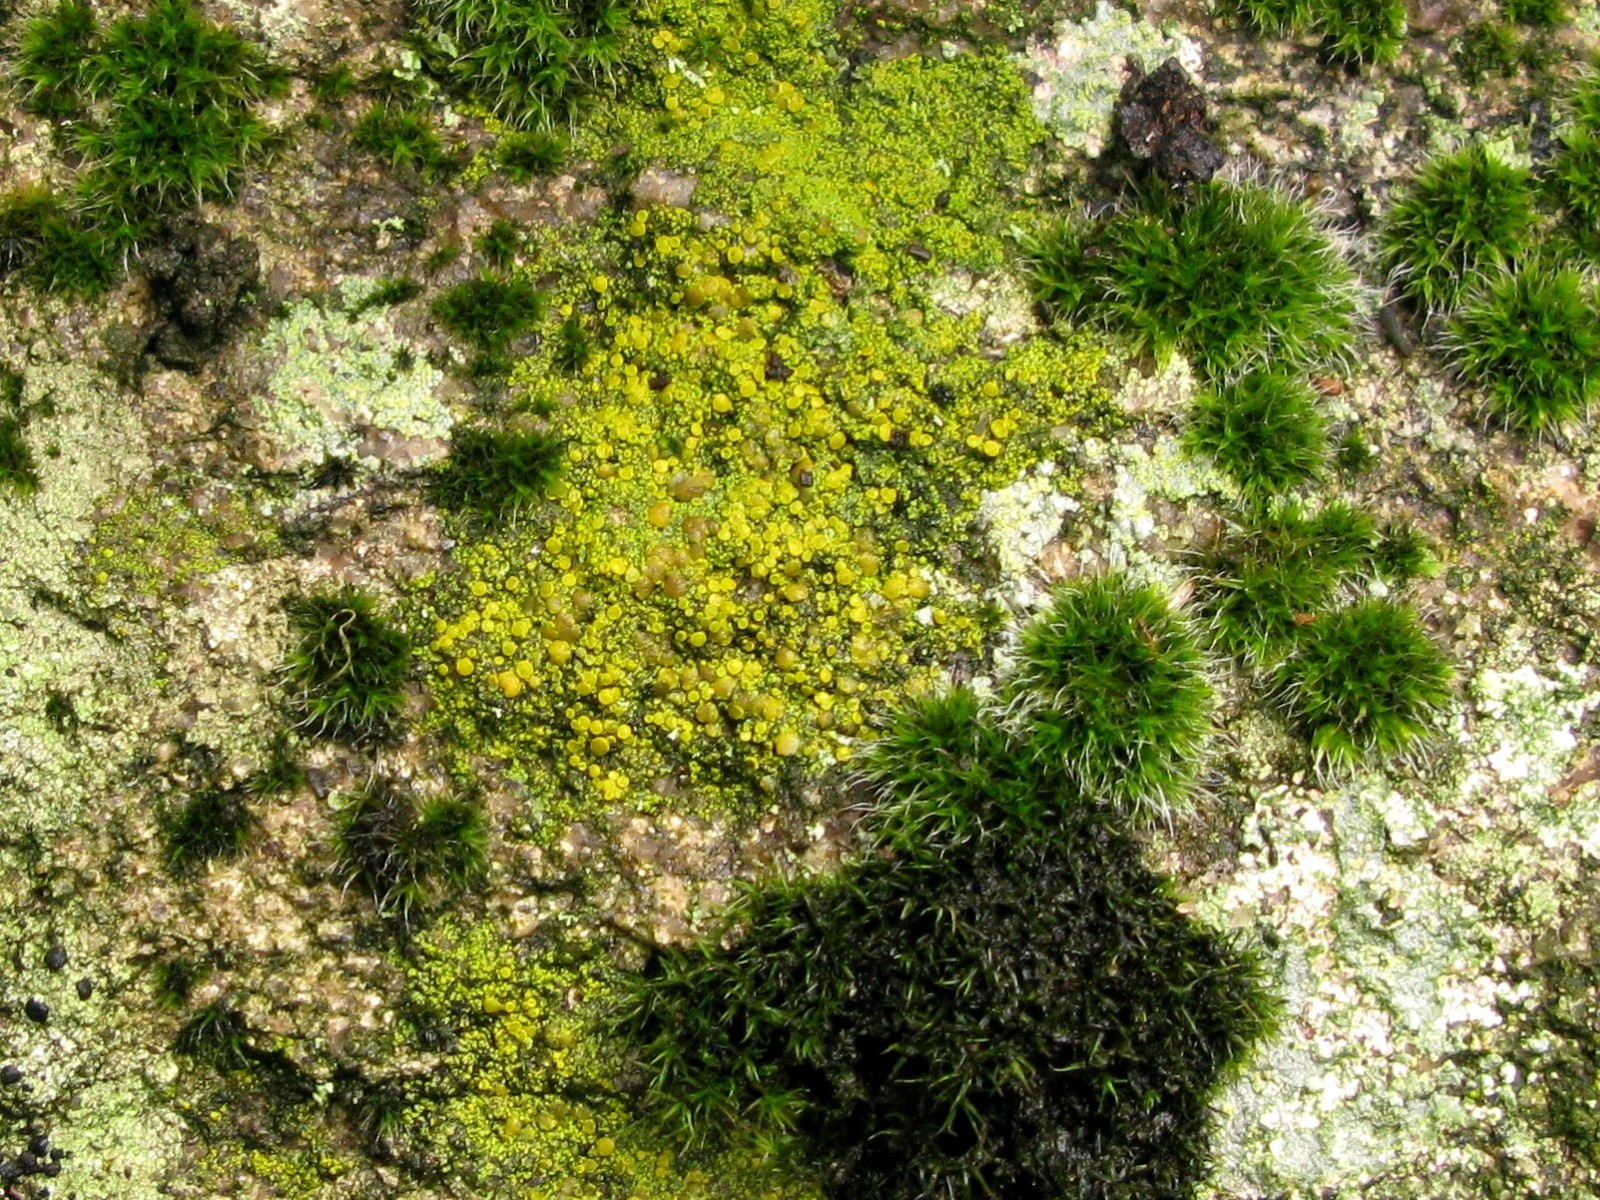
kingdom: Fungi
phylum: Ascomycota
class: Candelariomycetes
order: Candelariales
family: Candelariaceae
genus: Candelariella
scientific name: Candelariella vitellina
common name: almindelig æggeblommelav
